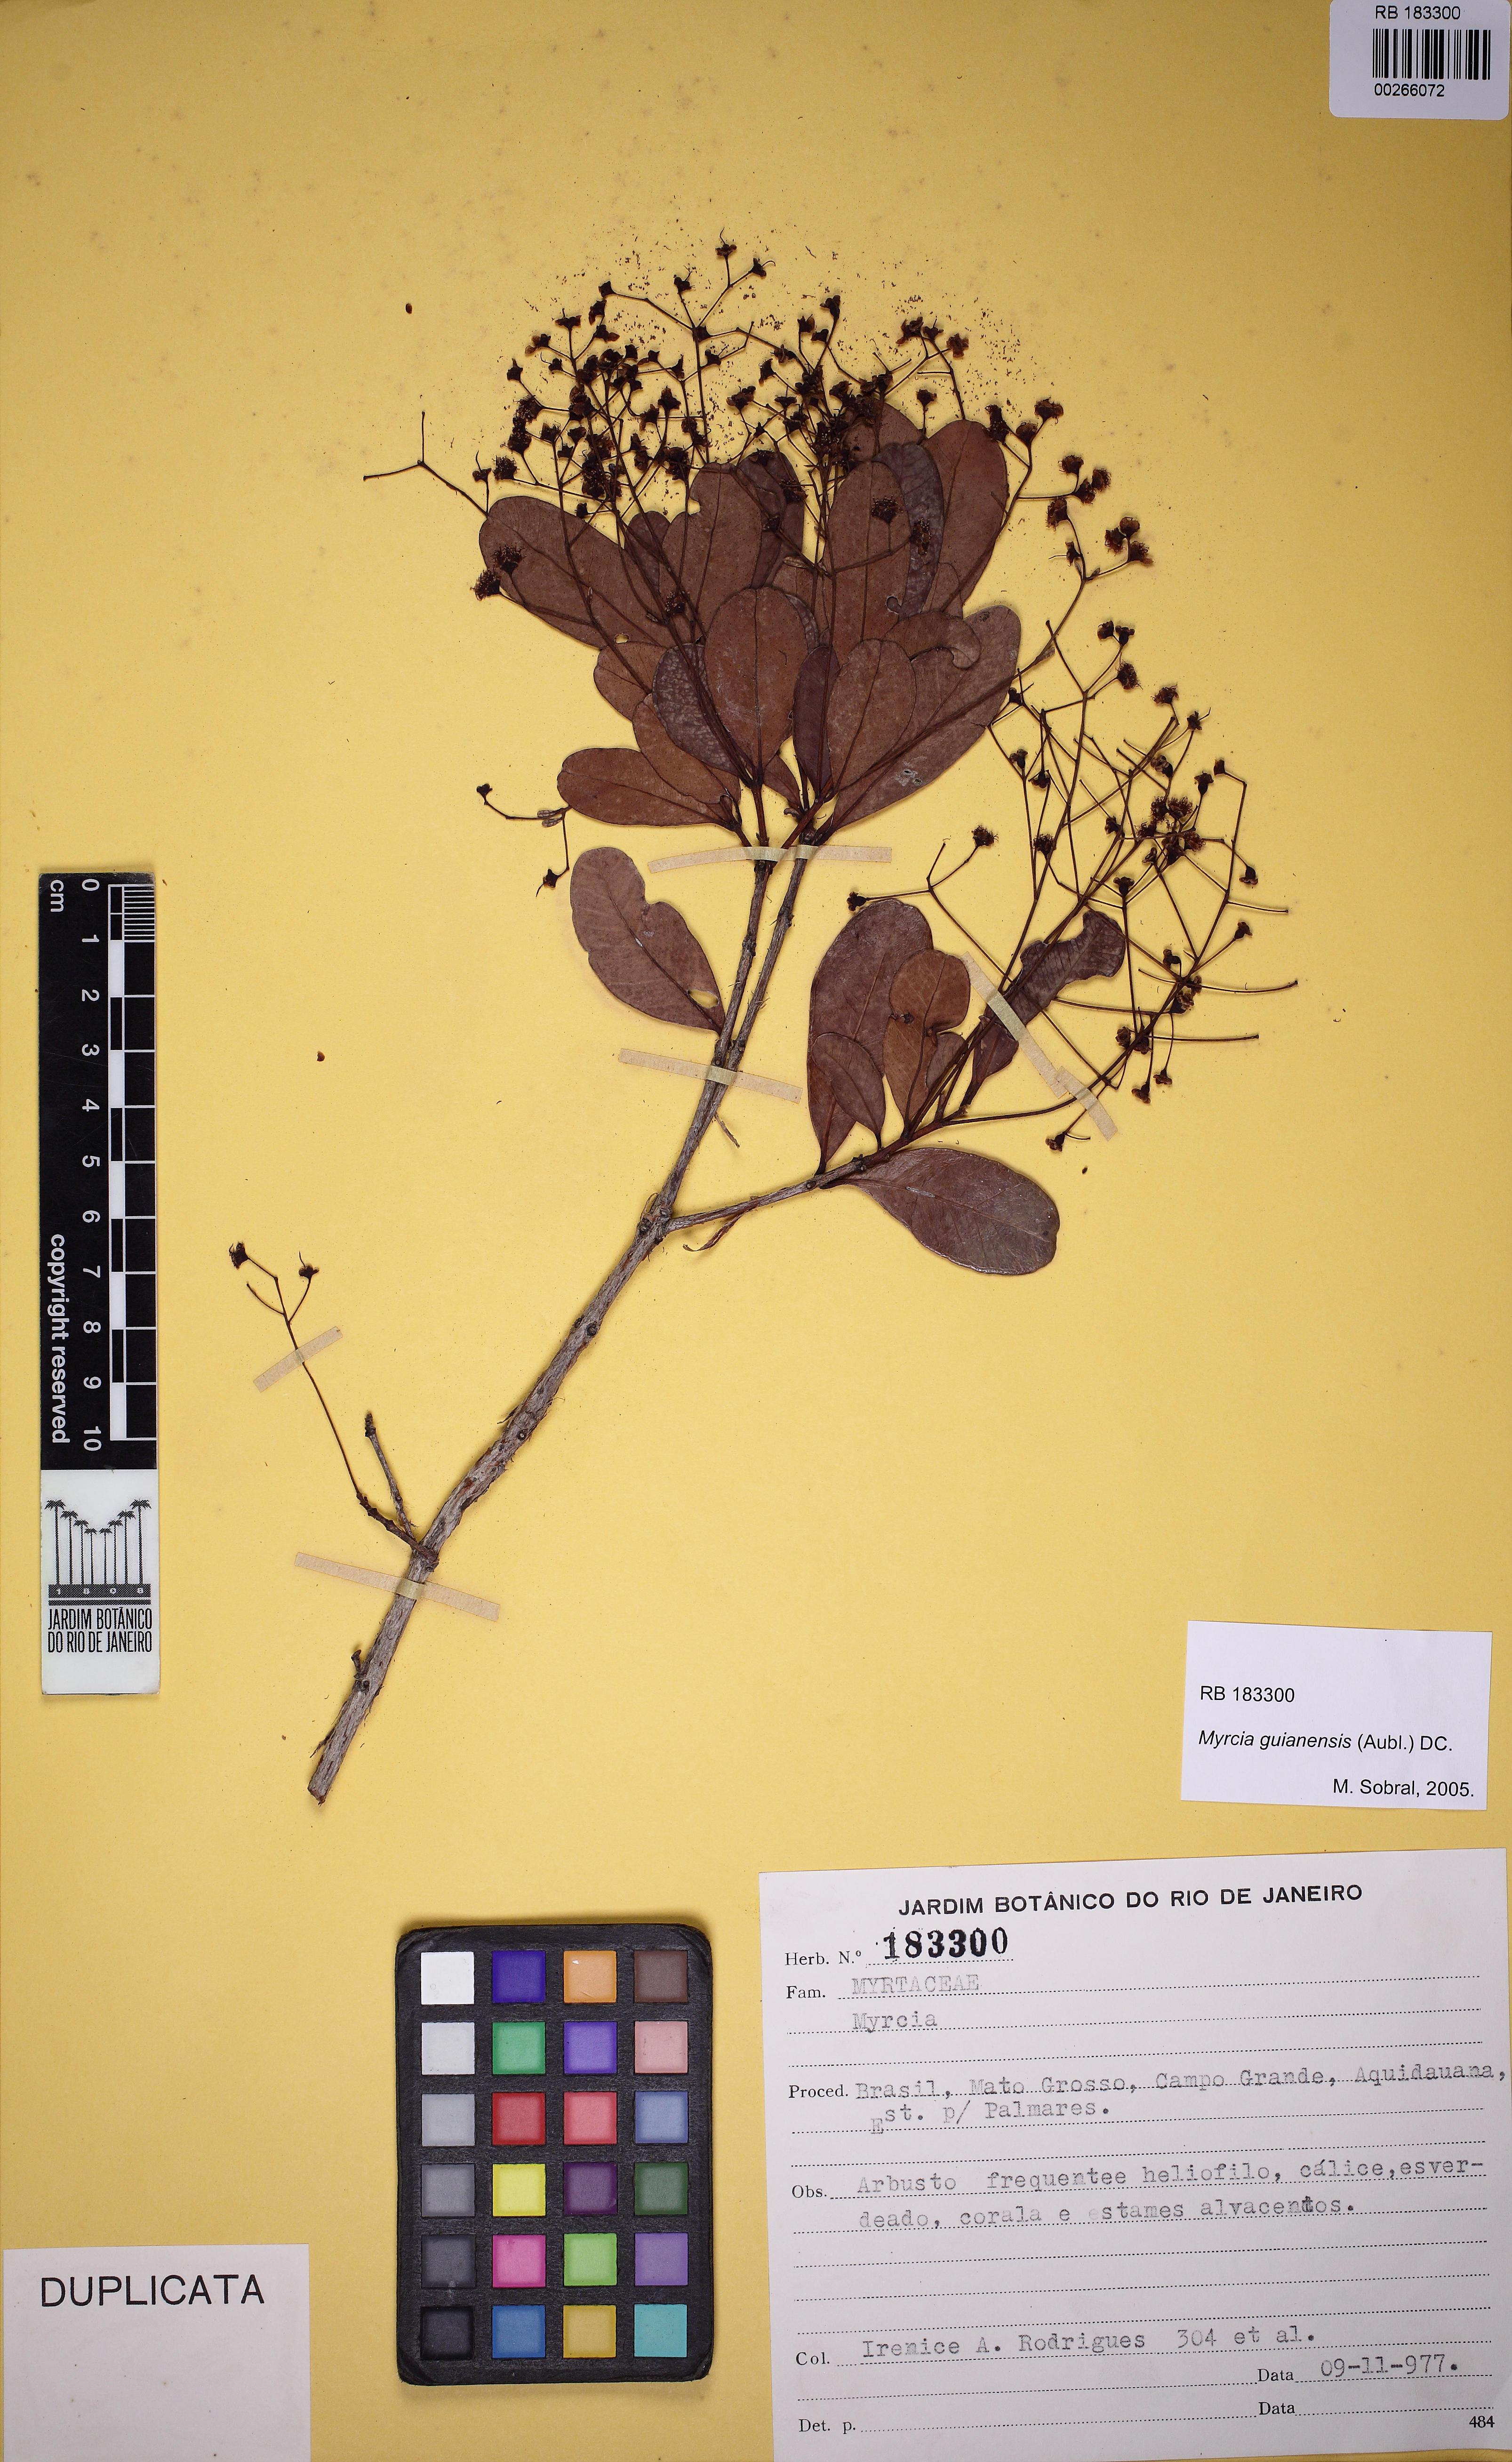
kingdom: Plantae
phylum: Tracheophyta
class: Magnoliopsida
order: Myrtales
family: Myrtaceae
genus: Myrcia
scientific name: Myrcia guianensis
